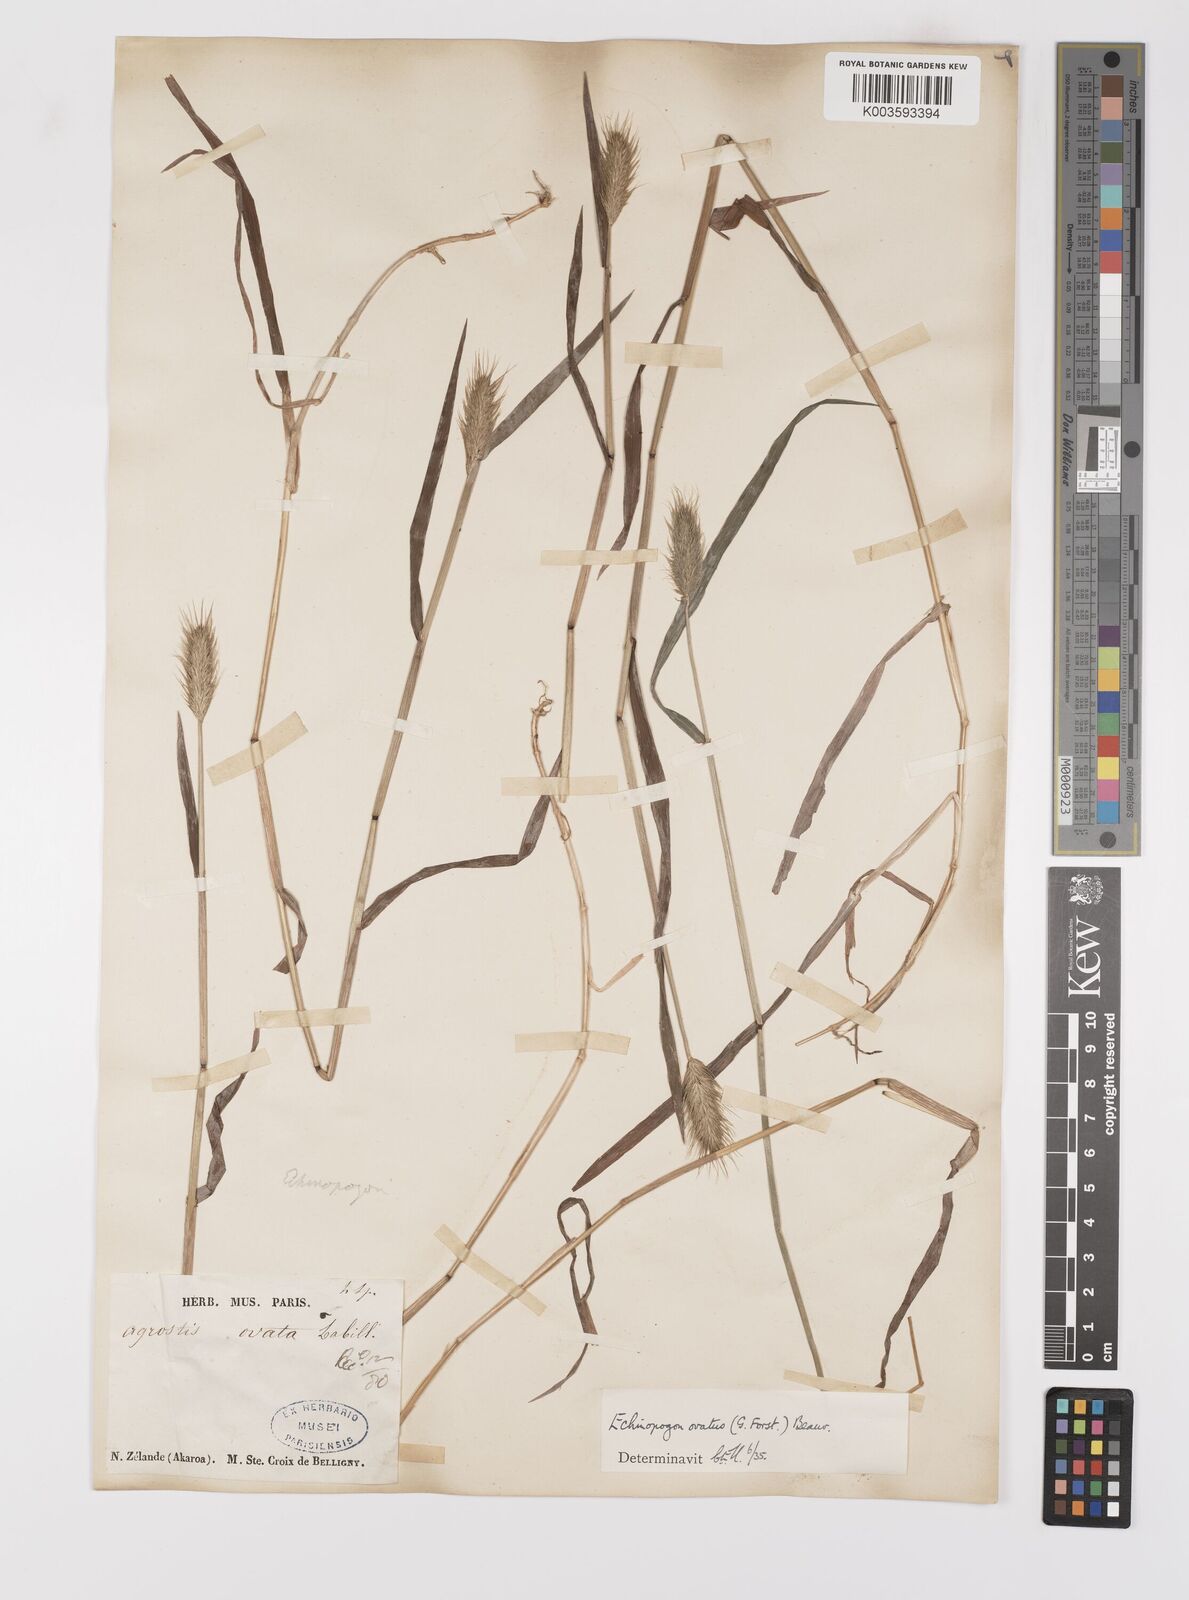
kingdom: Plantae
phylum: Tracheophyta
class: Liliopsida
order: Poales
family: Poaceae
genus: Echinopogon
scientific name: Echinopogon ovatus
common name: Hedgehog-grass
